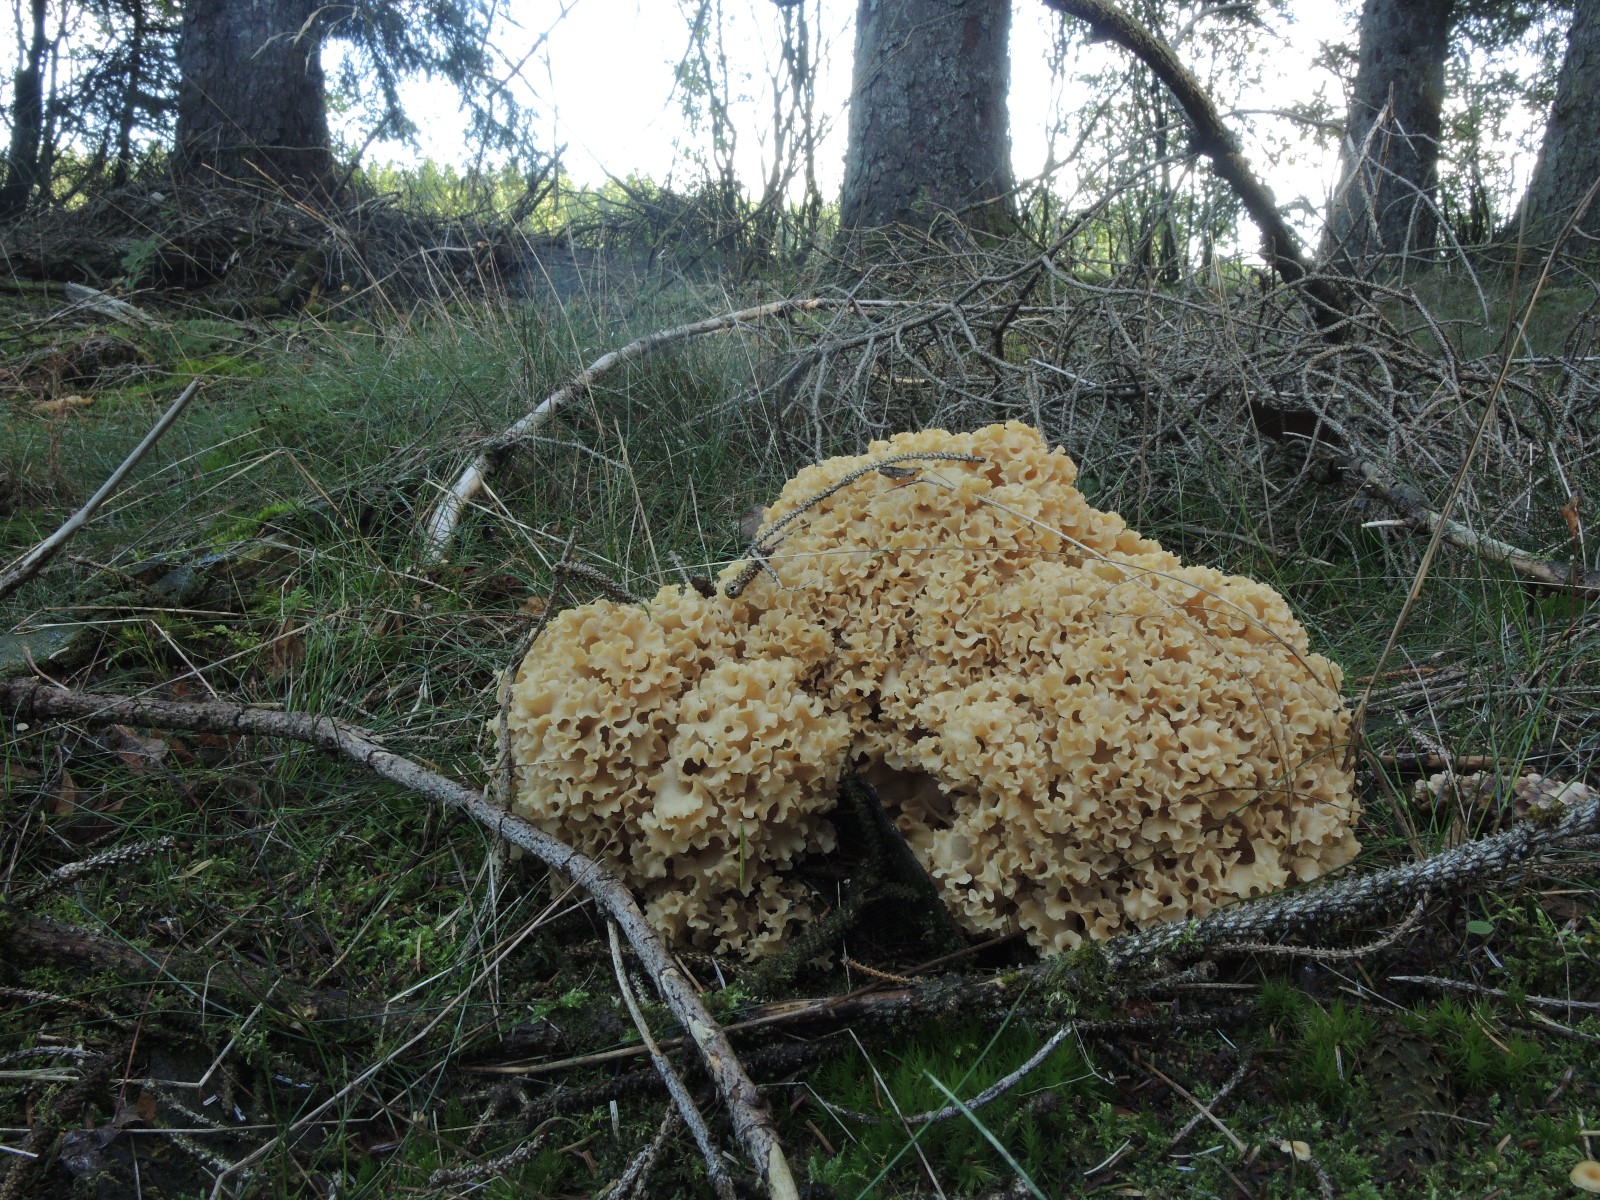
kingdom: Fungi
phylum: Basidiomycota
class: Agaricomycetes
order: Polyporales
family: Sparassidaceae
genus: Sparassis
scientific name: Sparassis crispa
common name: kruset blomkålssvamp
